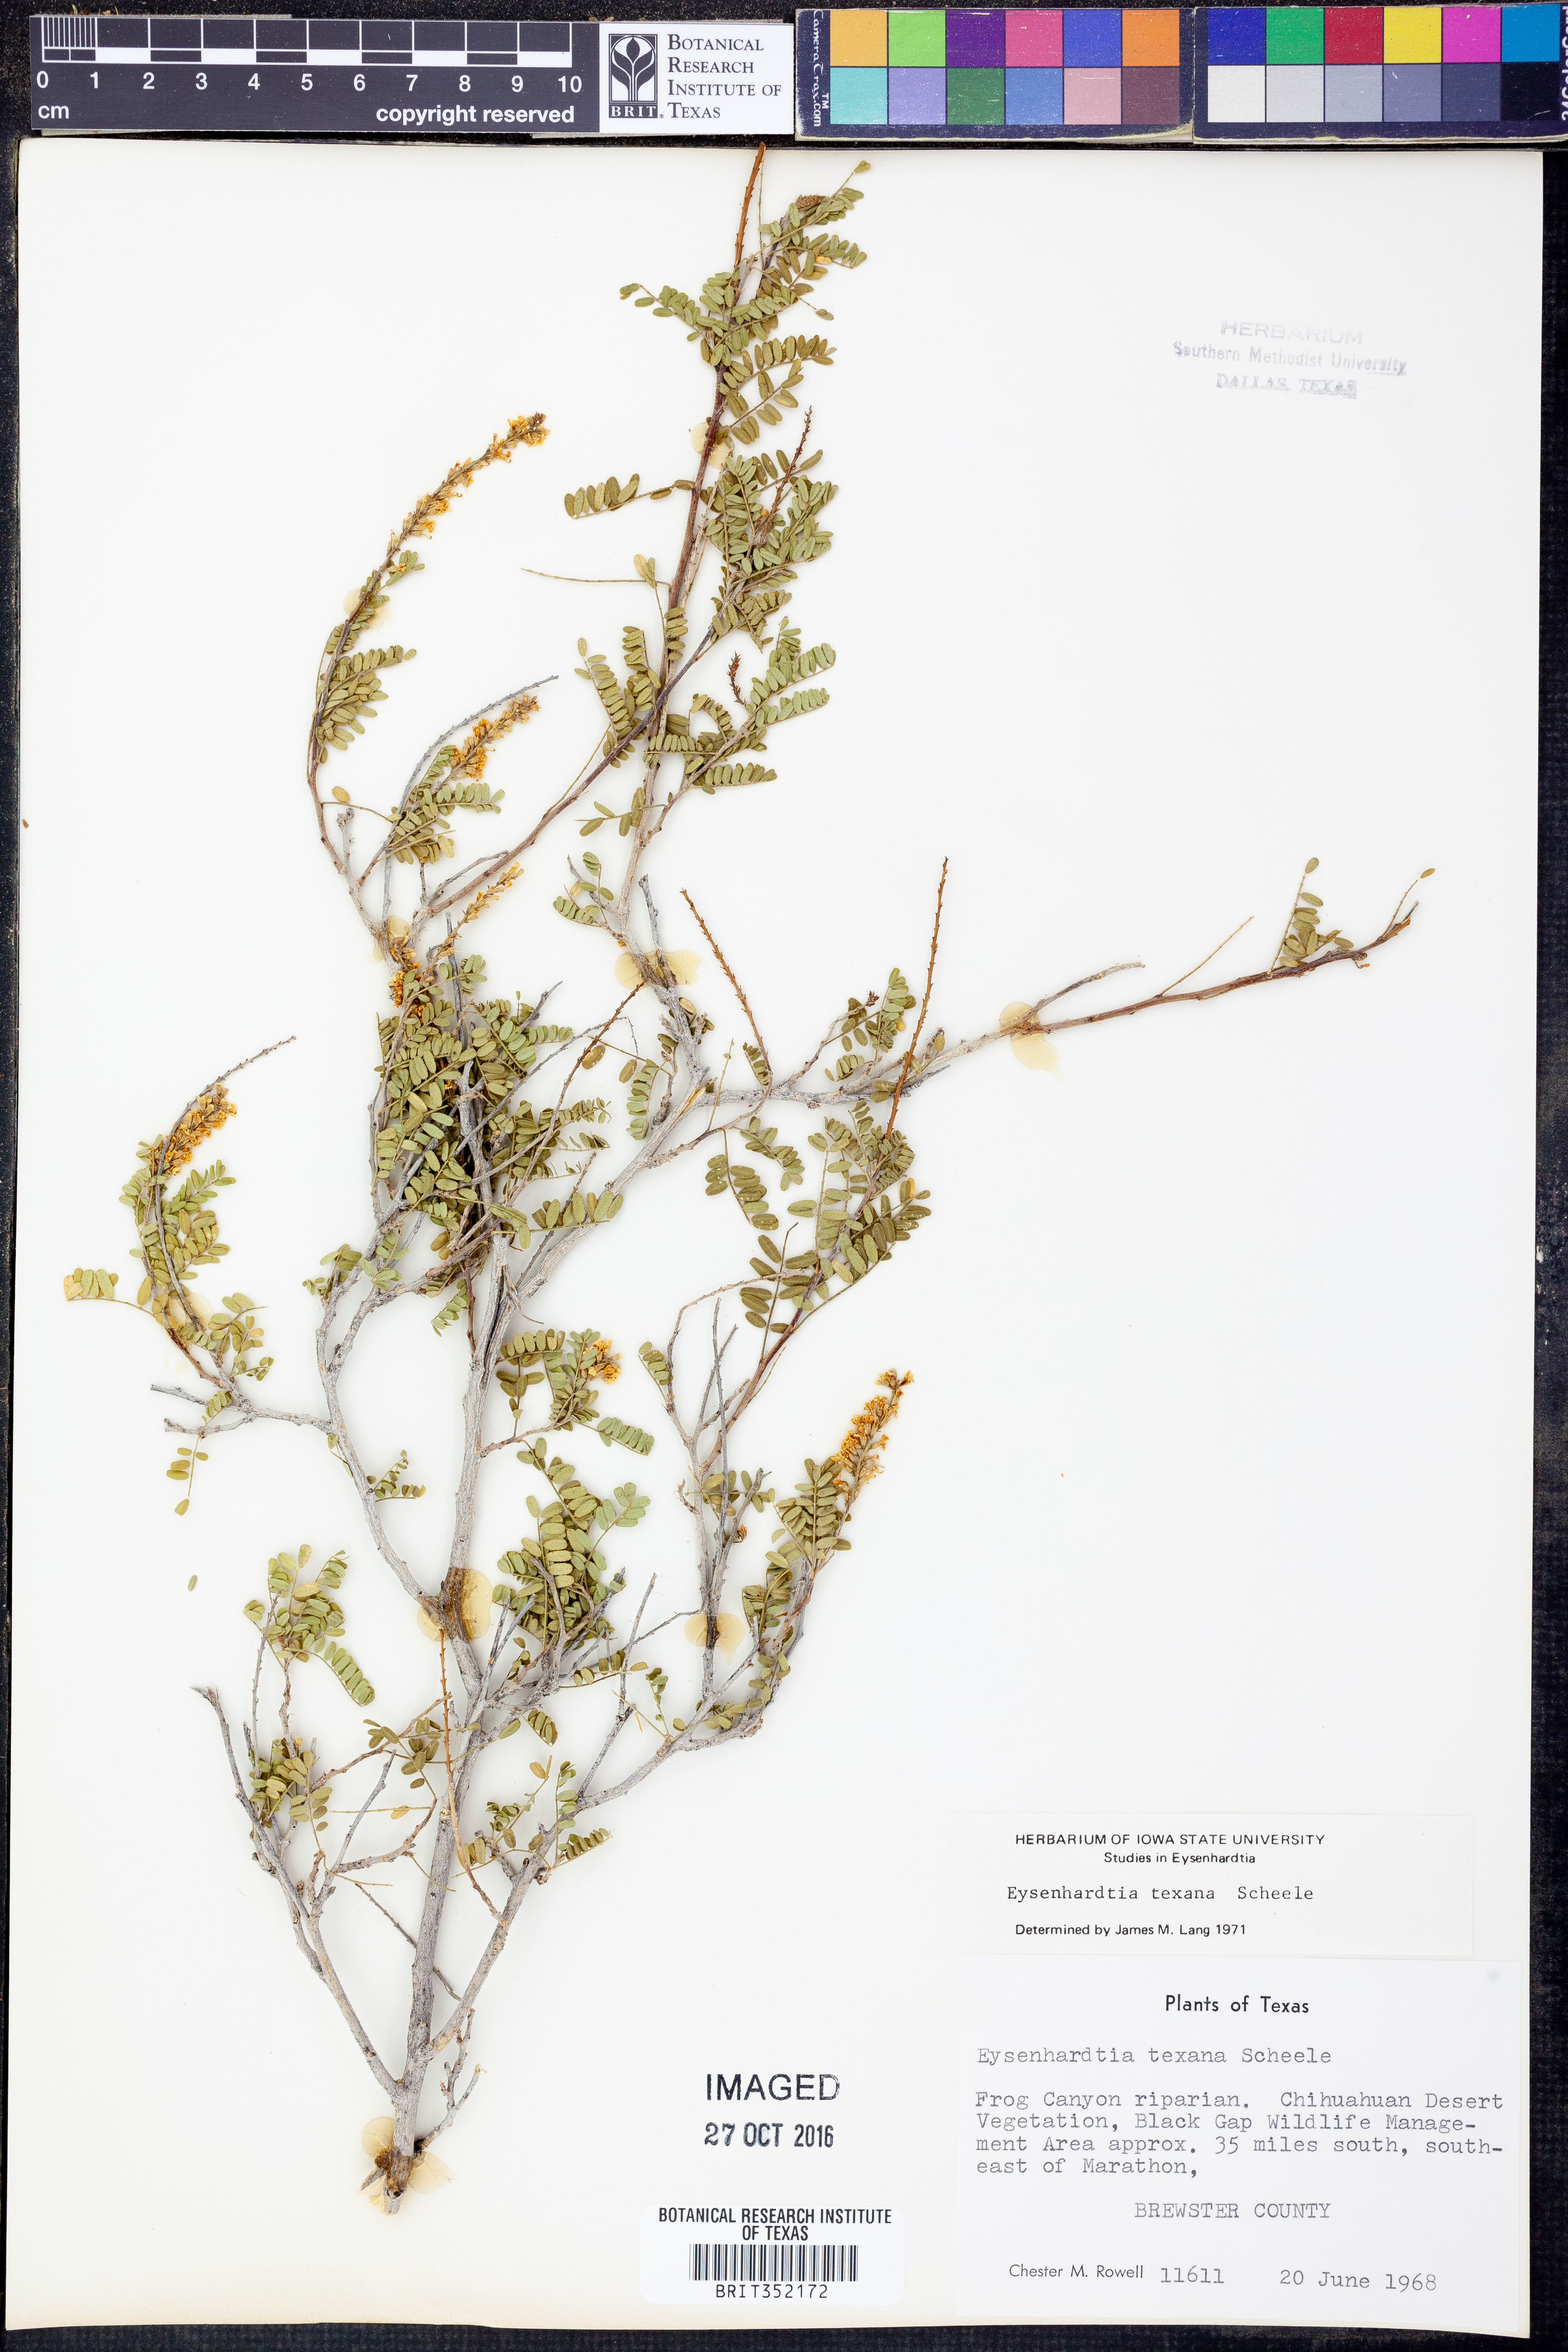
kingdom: Plantae
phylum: Tracheophyta
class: Magnoliopsida
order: Fabales
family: Fabaceae
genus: Eysenhardtia
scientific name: Eysenhardtia texana
